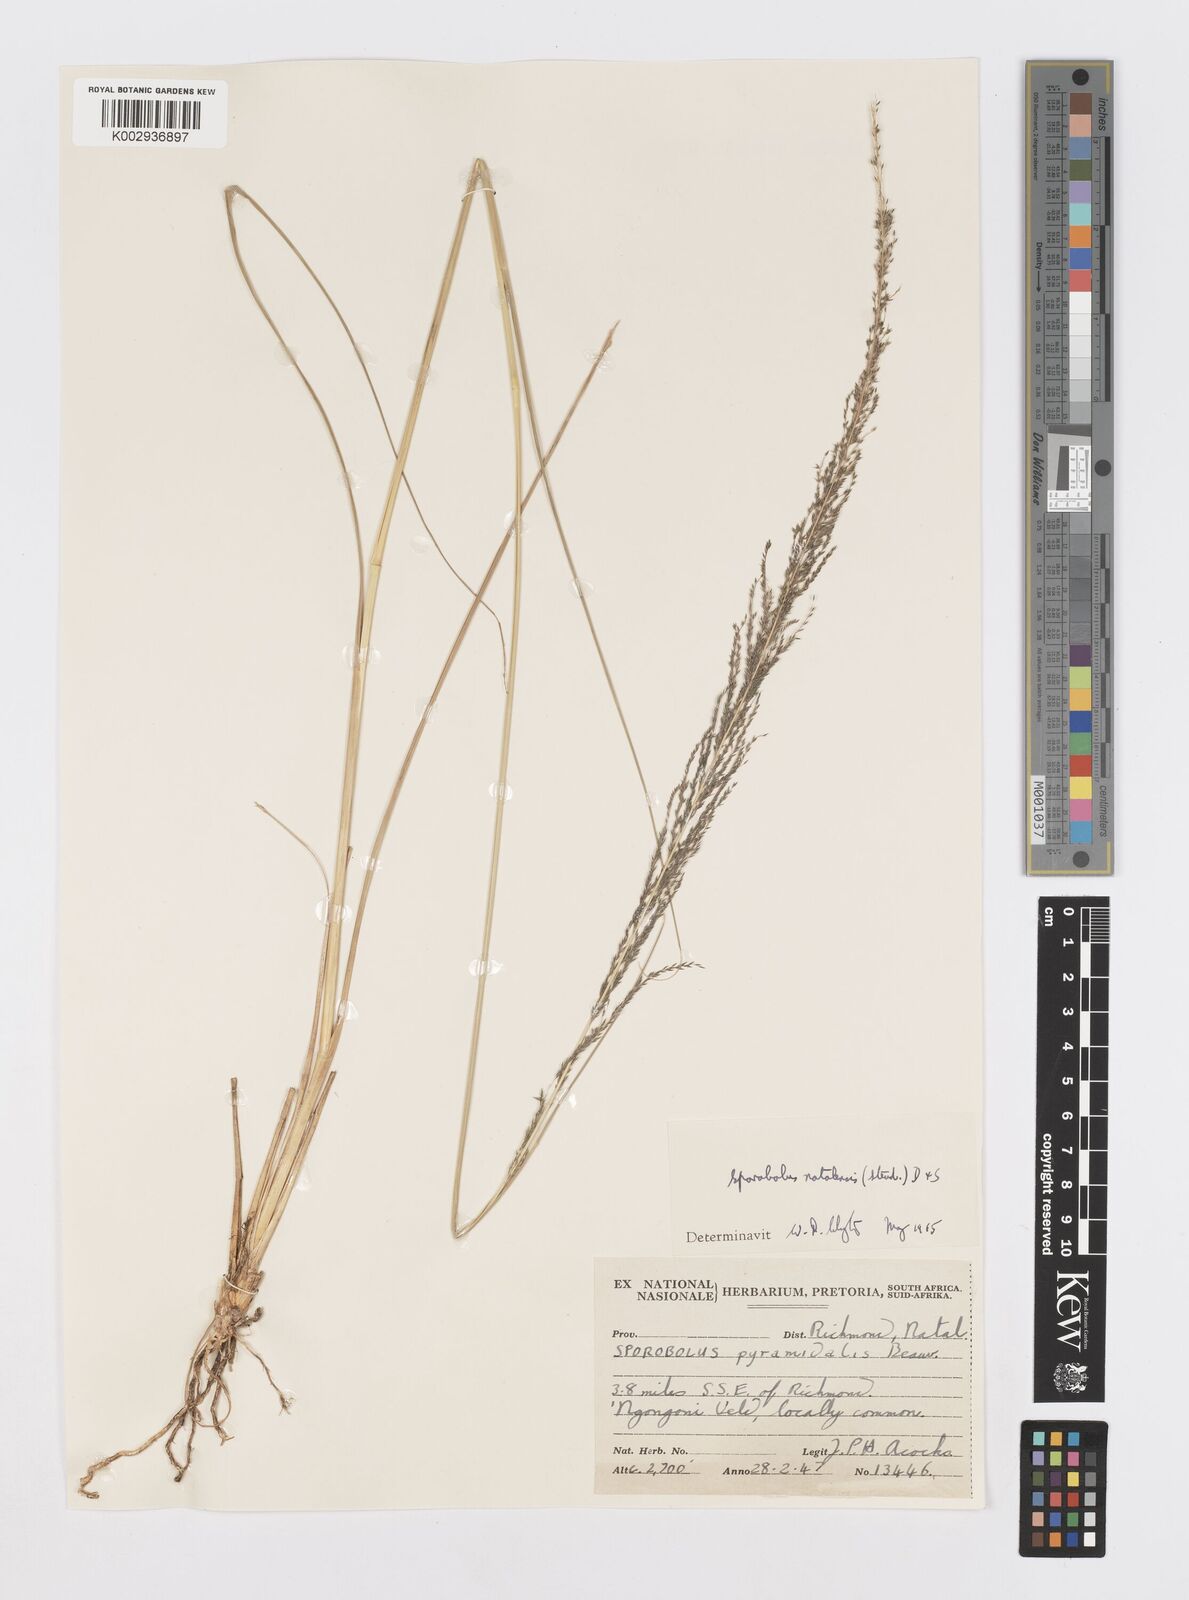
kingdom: Plantae
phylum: Tracheophyta
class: Liliopsida
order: Poales
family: Poaceae
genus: Sporobolus
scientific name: Sporobolus natalensis
